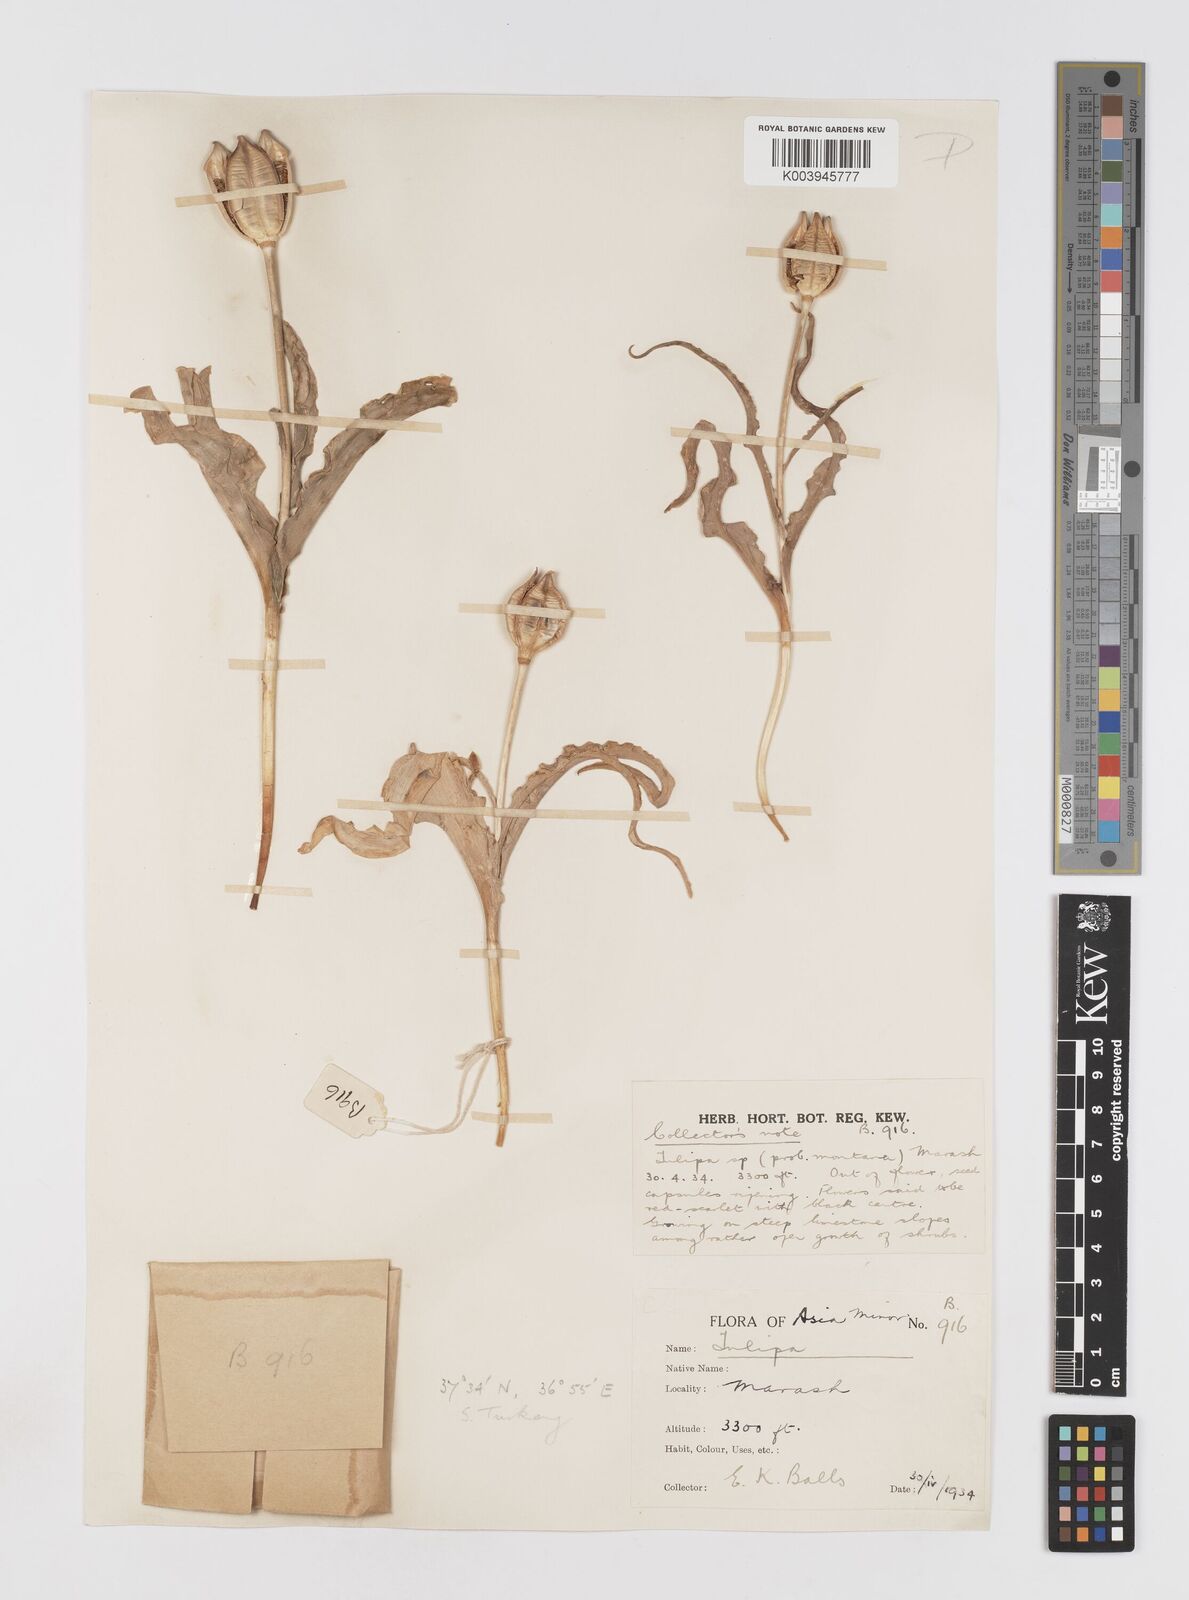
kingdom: Plantae
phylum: Tracheophyta
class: Liliopsida
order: Liliales
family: Liliaceae
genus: Tulipa
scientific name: Tulipa foliosa
